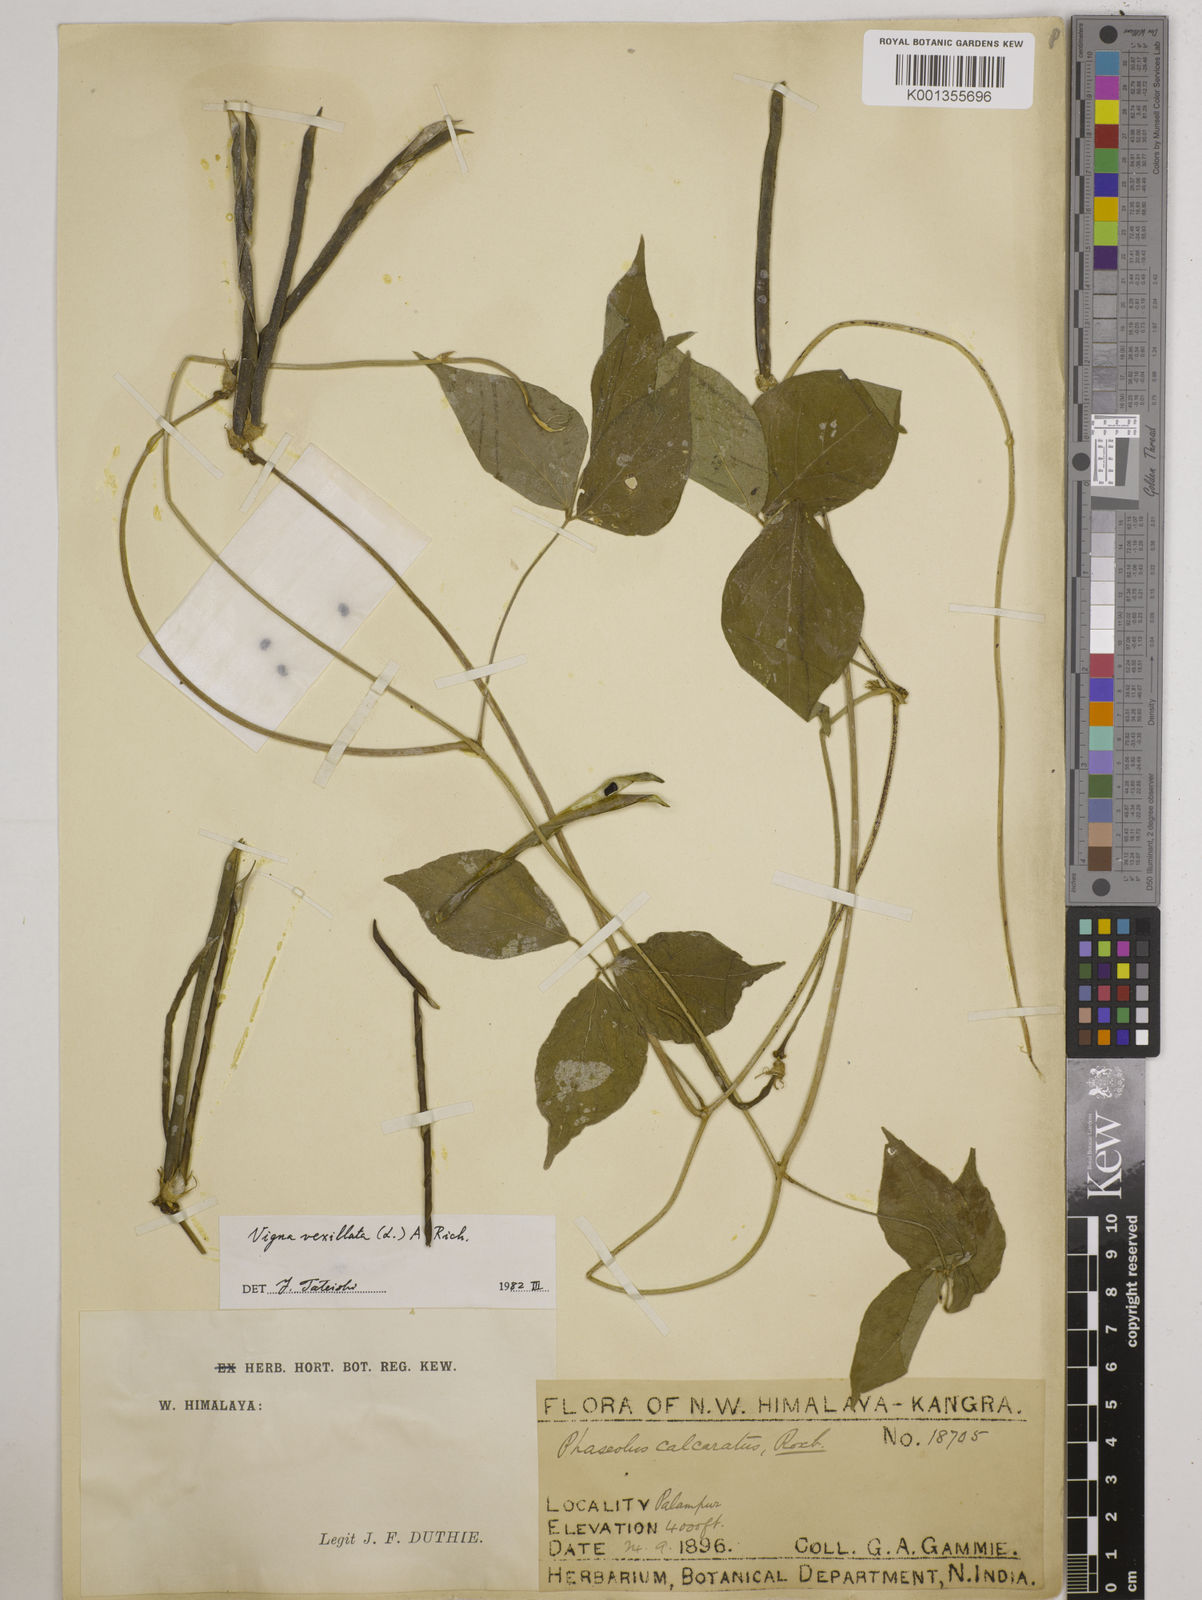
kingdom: Plantae
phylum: Tracheophyta
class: Magnoliopsida
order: Fabales
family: Fabaceae
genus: Vigna
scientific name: Vigna vexillata
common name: Zombi pea
